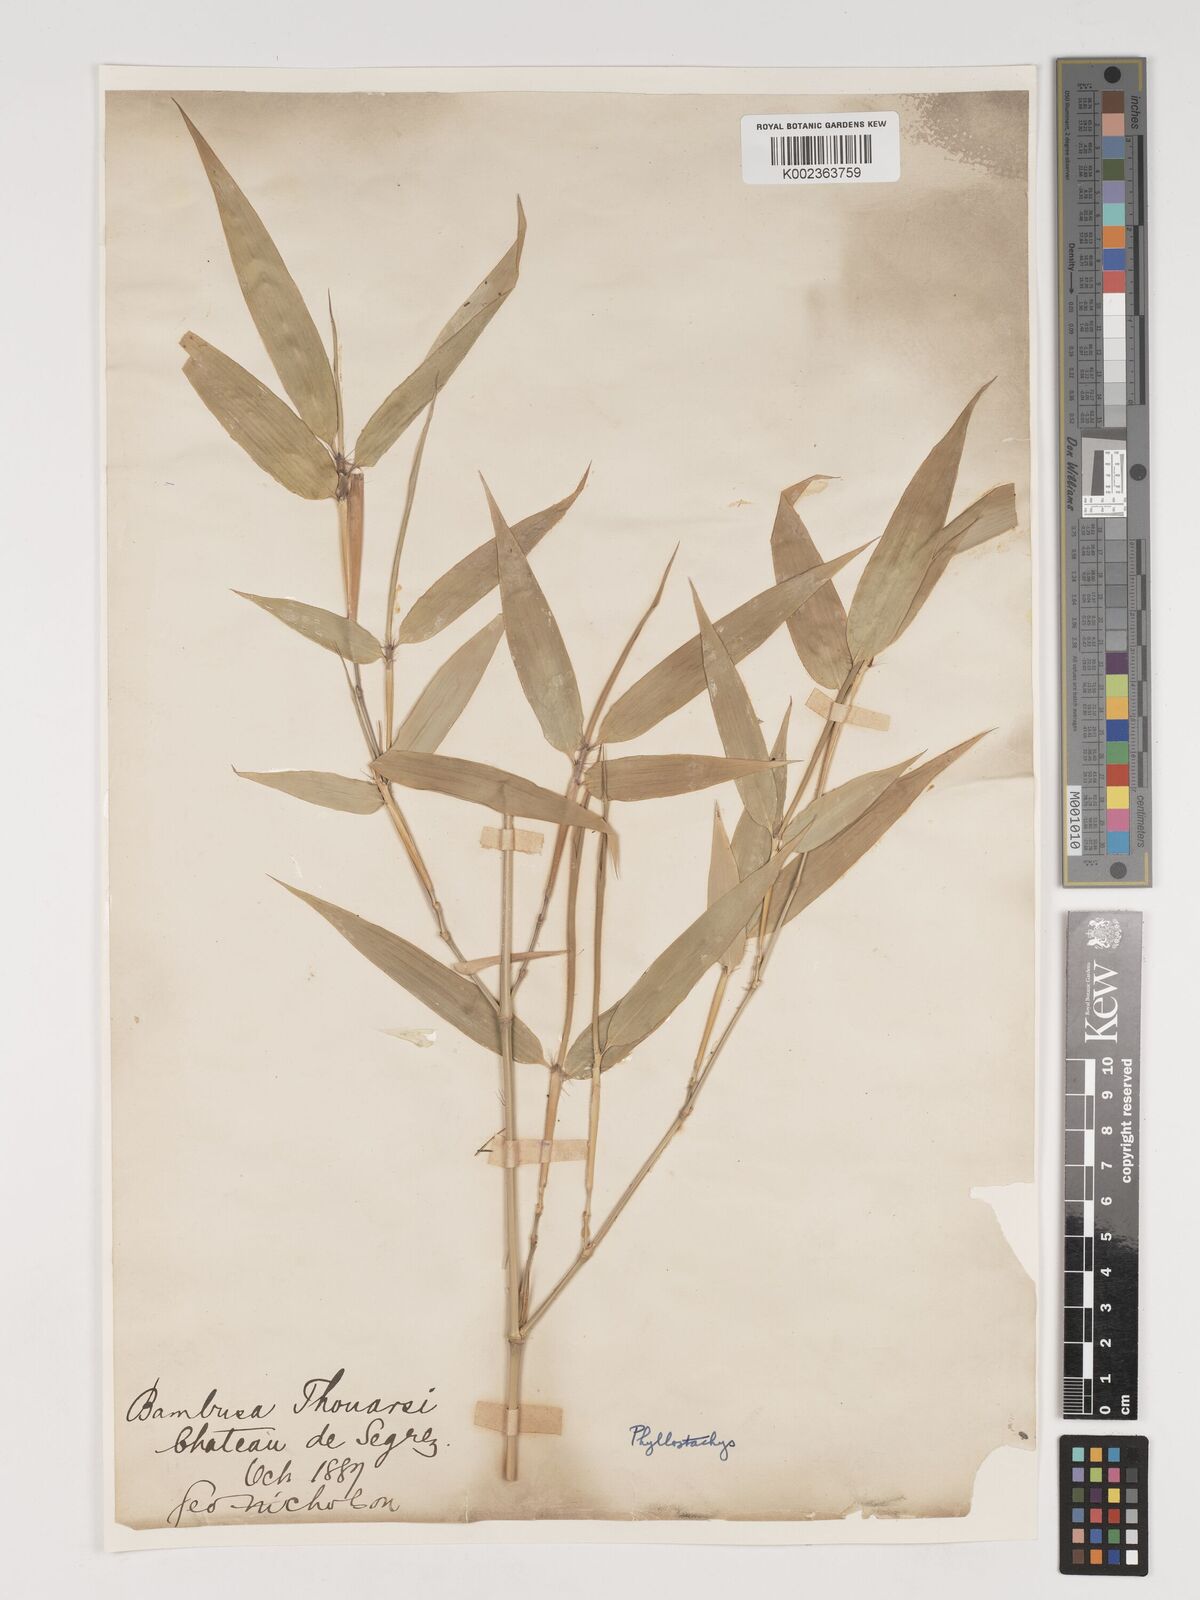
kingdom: Plantae
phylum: Tracheophyta
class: Liliopsida
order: Poales
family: Poaceae
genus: Phyllostachys
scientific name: Phyllostachys reticulata
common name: Bamboo
